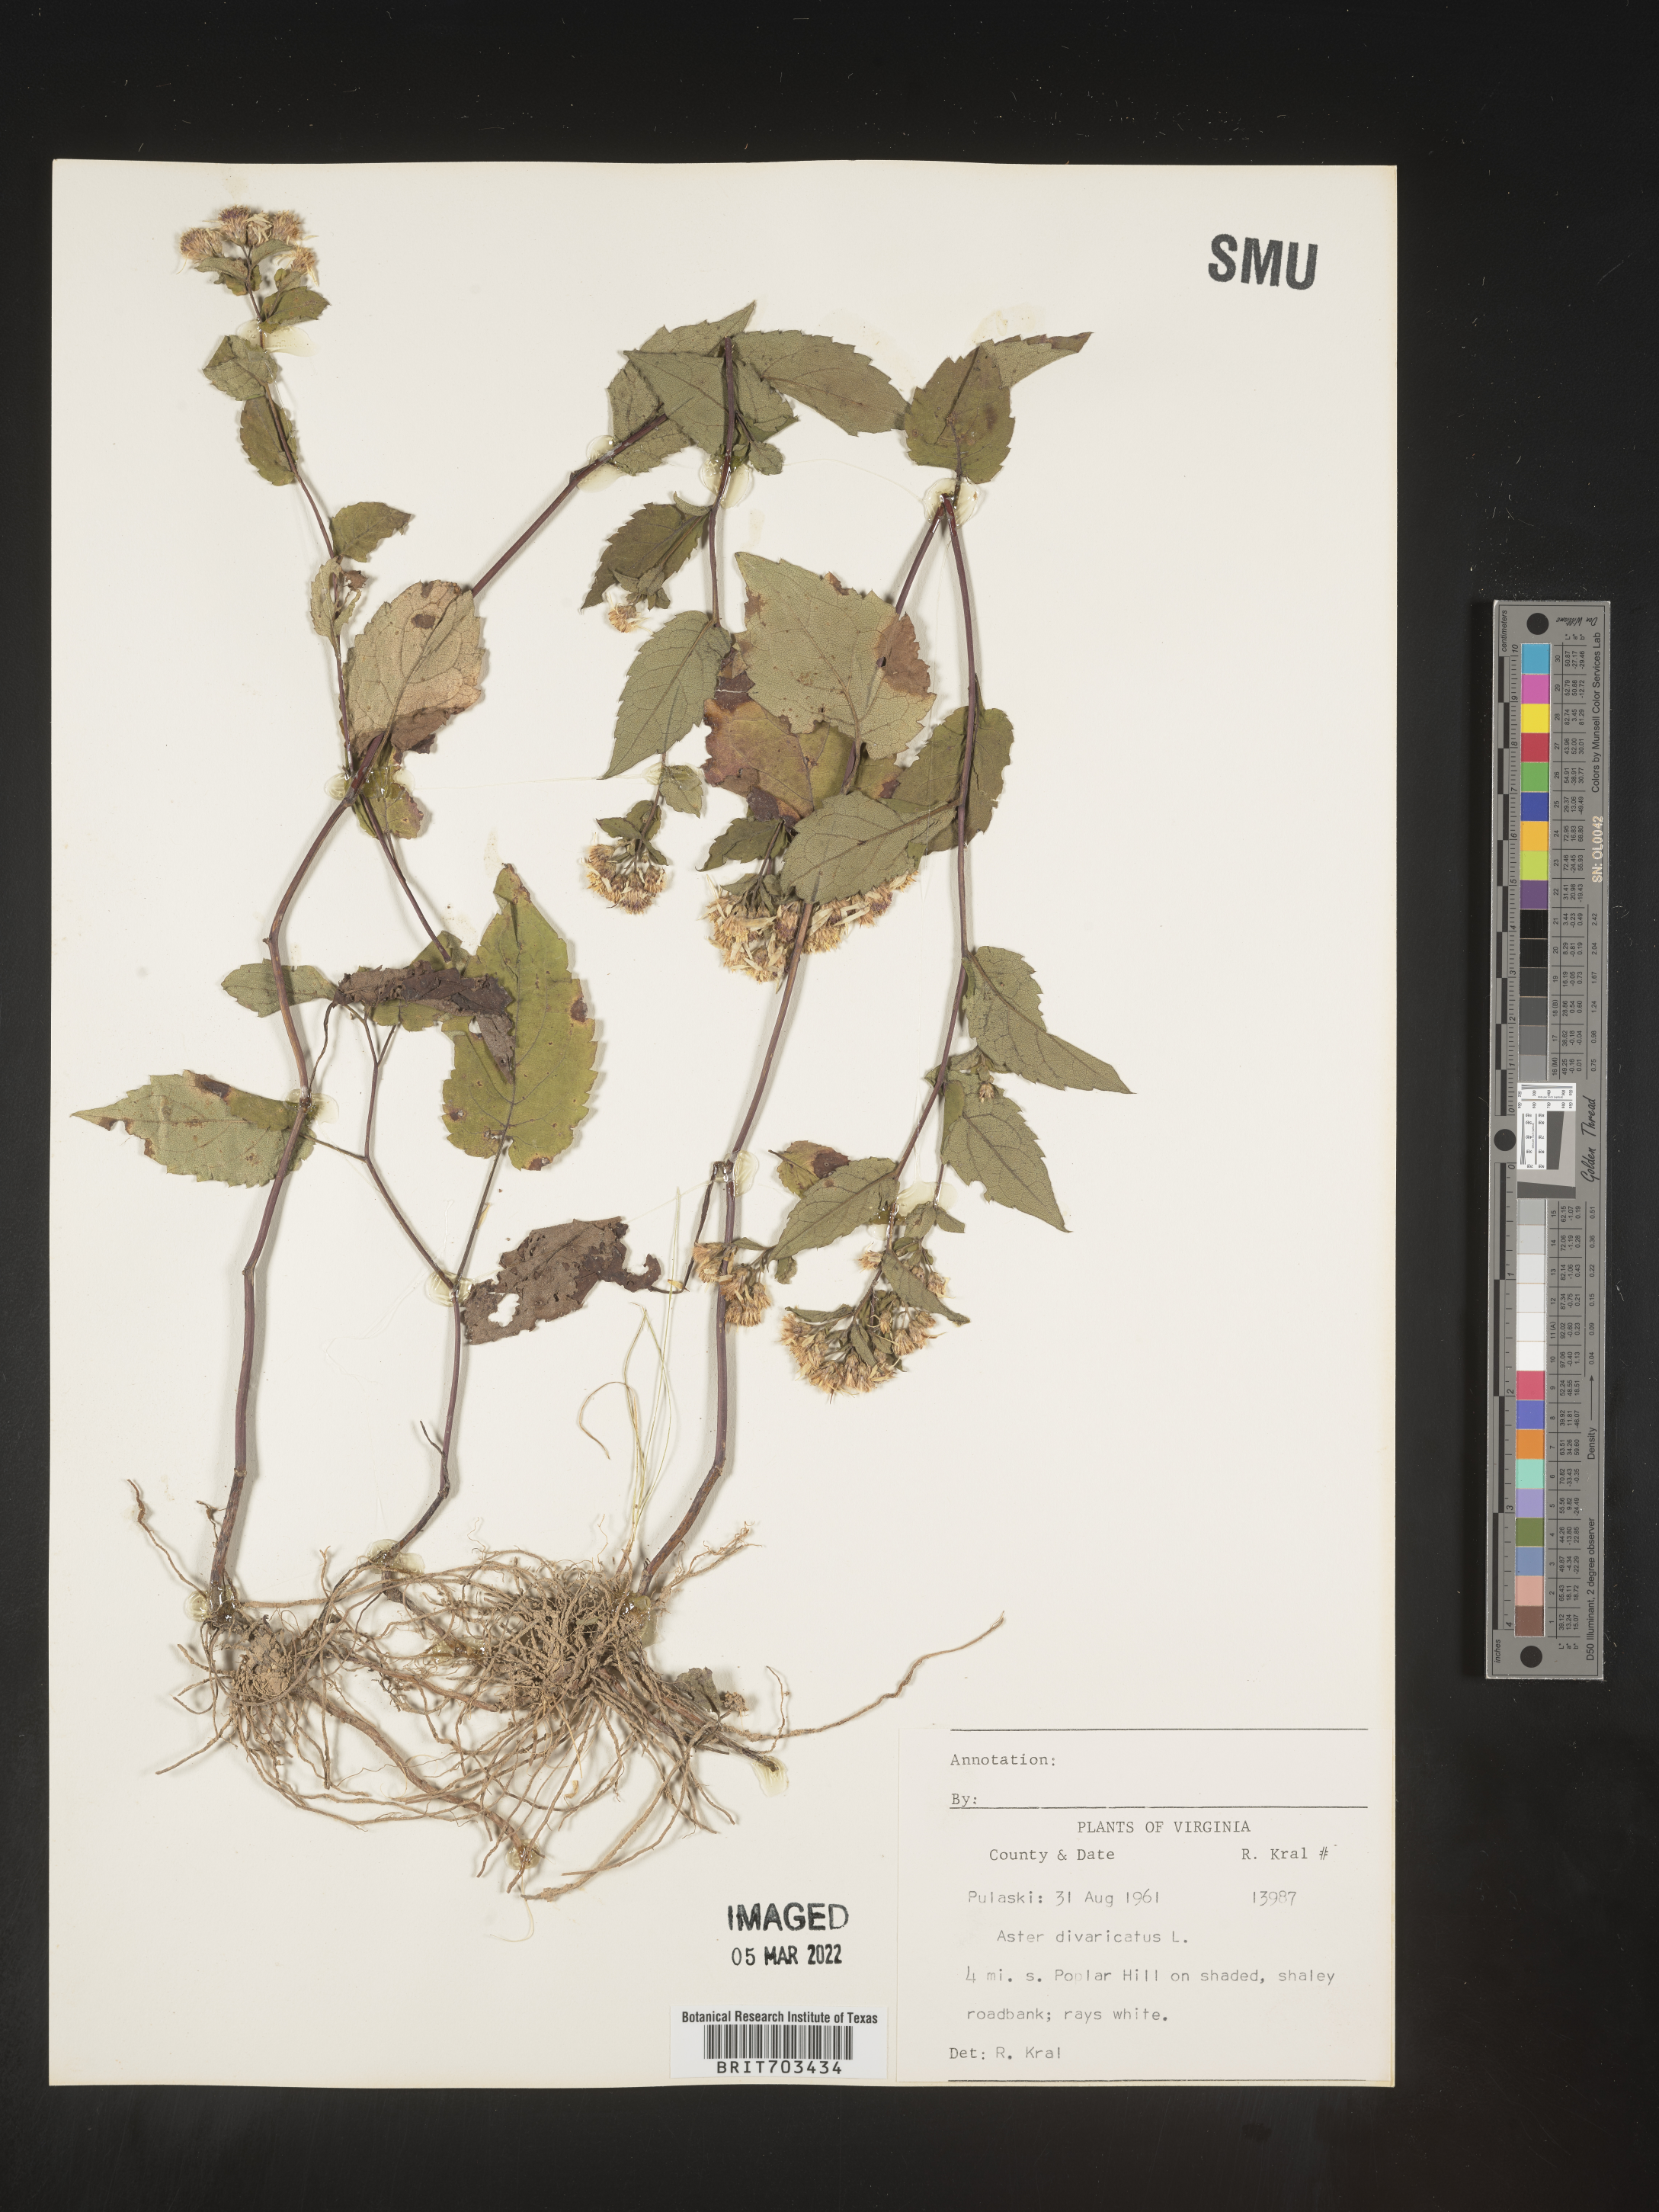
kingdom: Plantae
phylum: Tracheophyta
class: Magnoliopsida
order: Asterales
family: Asteraceae
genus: Eurybia
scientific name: Eurybia divaricata
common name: White wood aster
